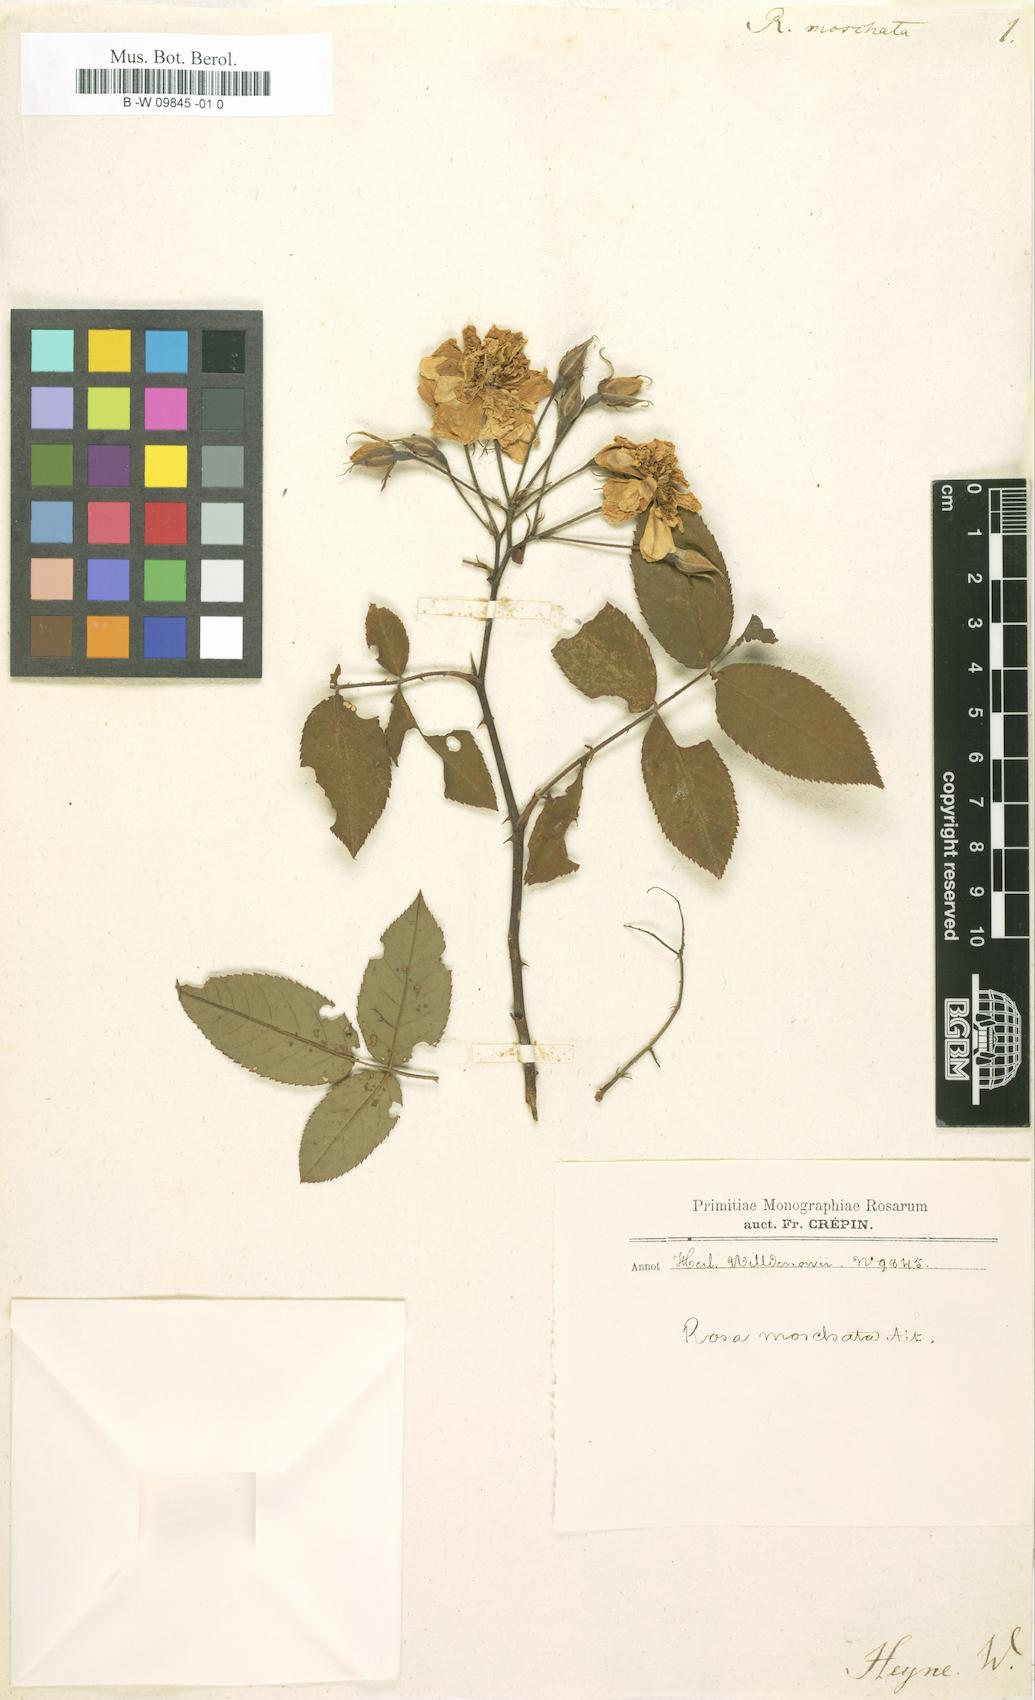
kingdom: Plantae
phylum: Tracheophyta
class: Magnoliopsida
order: Rosales
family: Rosaceae
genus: Rosa
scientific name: Rosa moschata
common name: Musk rose
